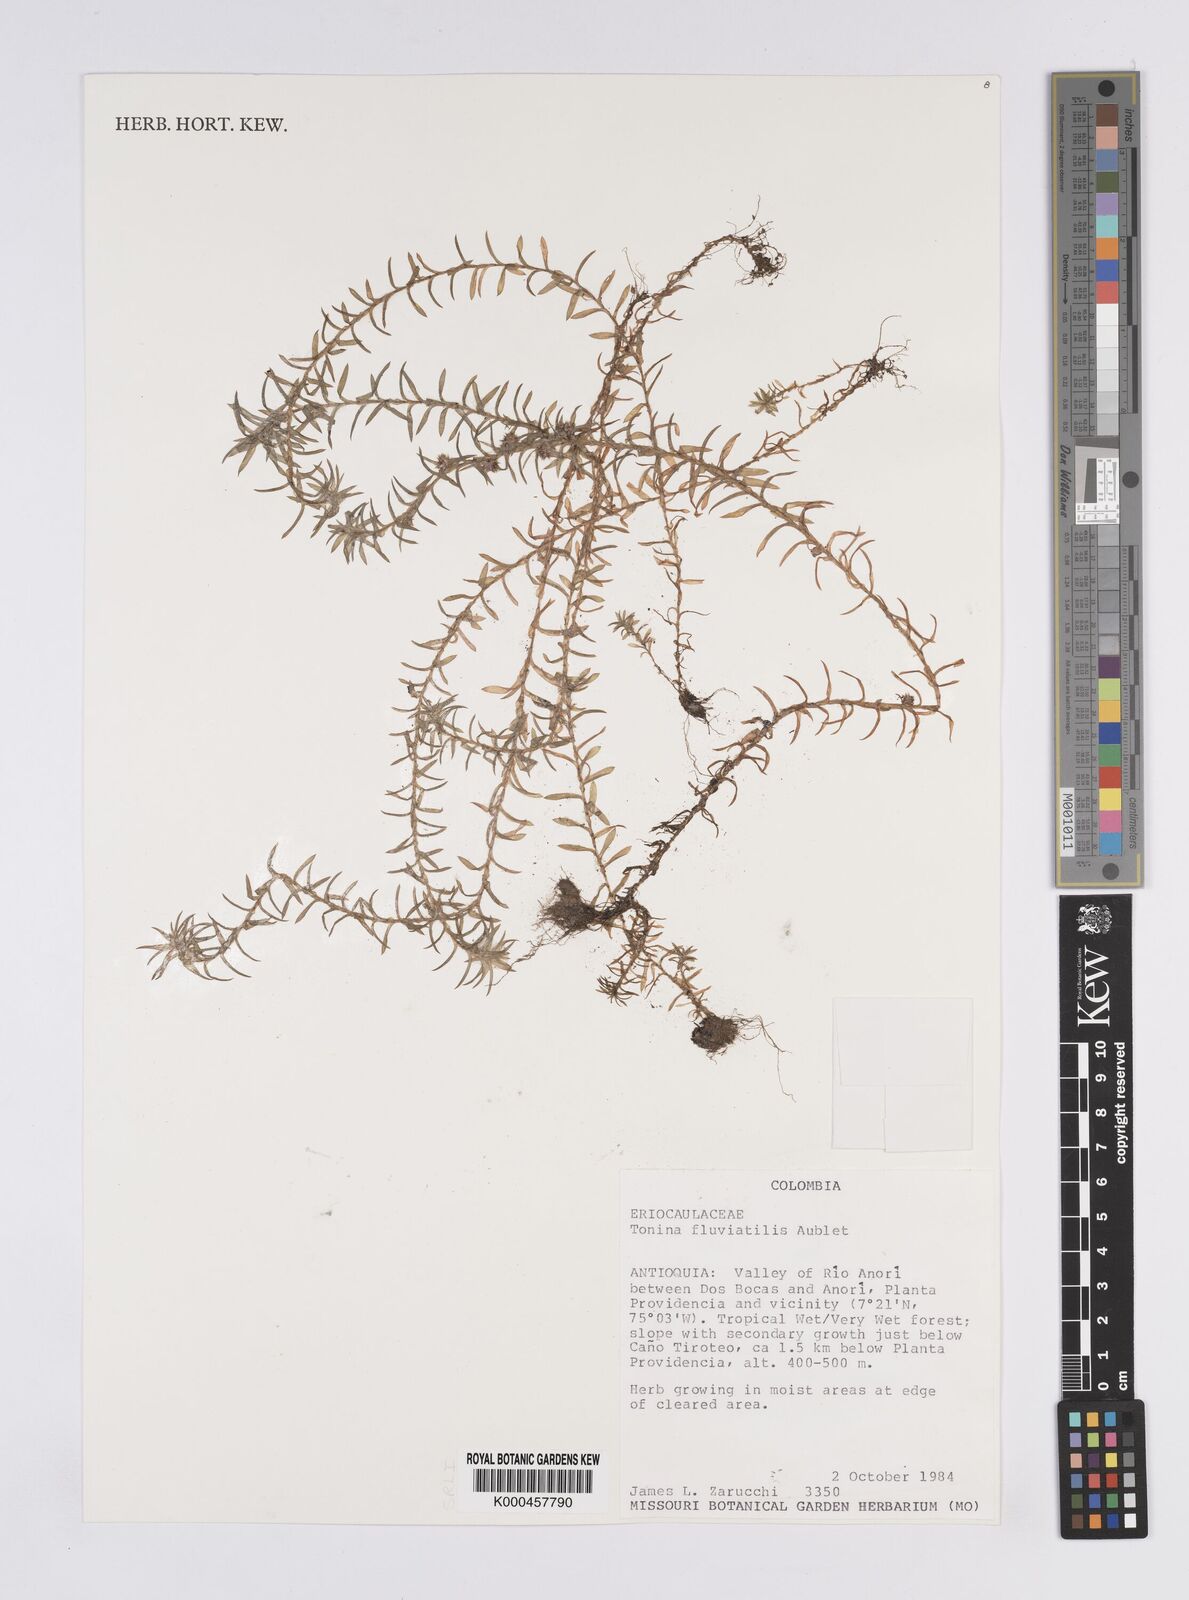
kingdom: Plantae
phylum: Tracheophyta
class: Liliopsida
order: Poales
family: Eriocaulaceae
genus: Paepalanthus
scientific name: Paepalanthus fluviatilis
